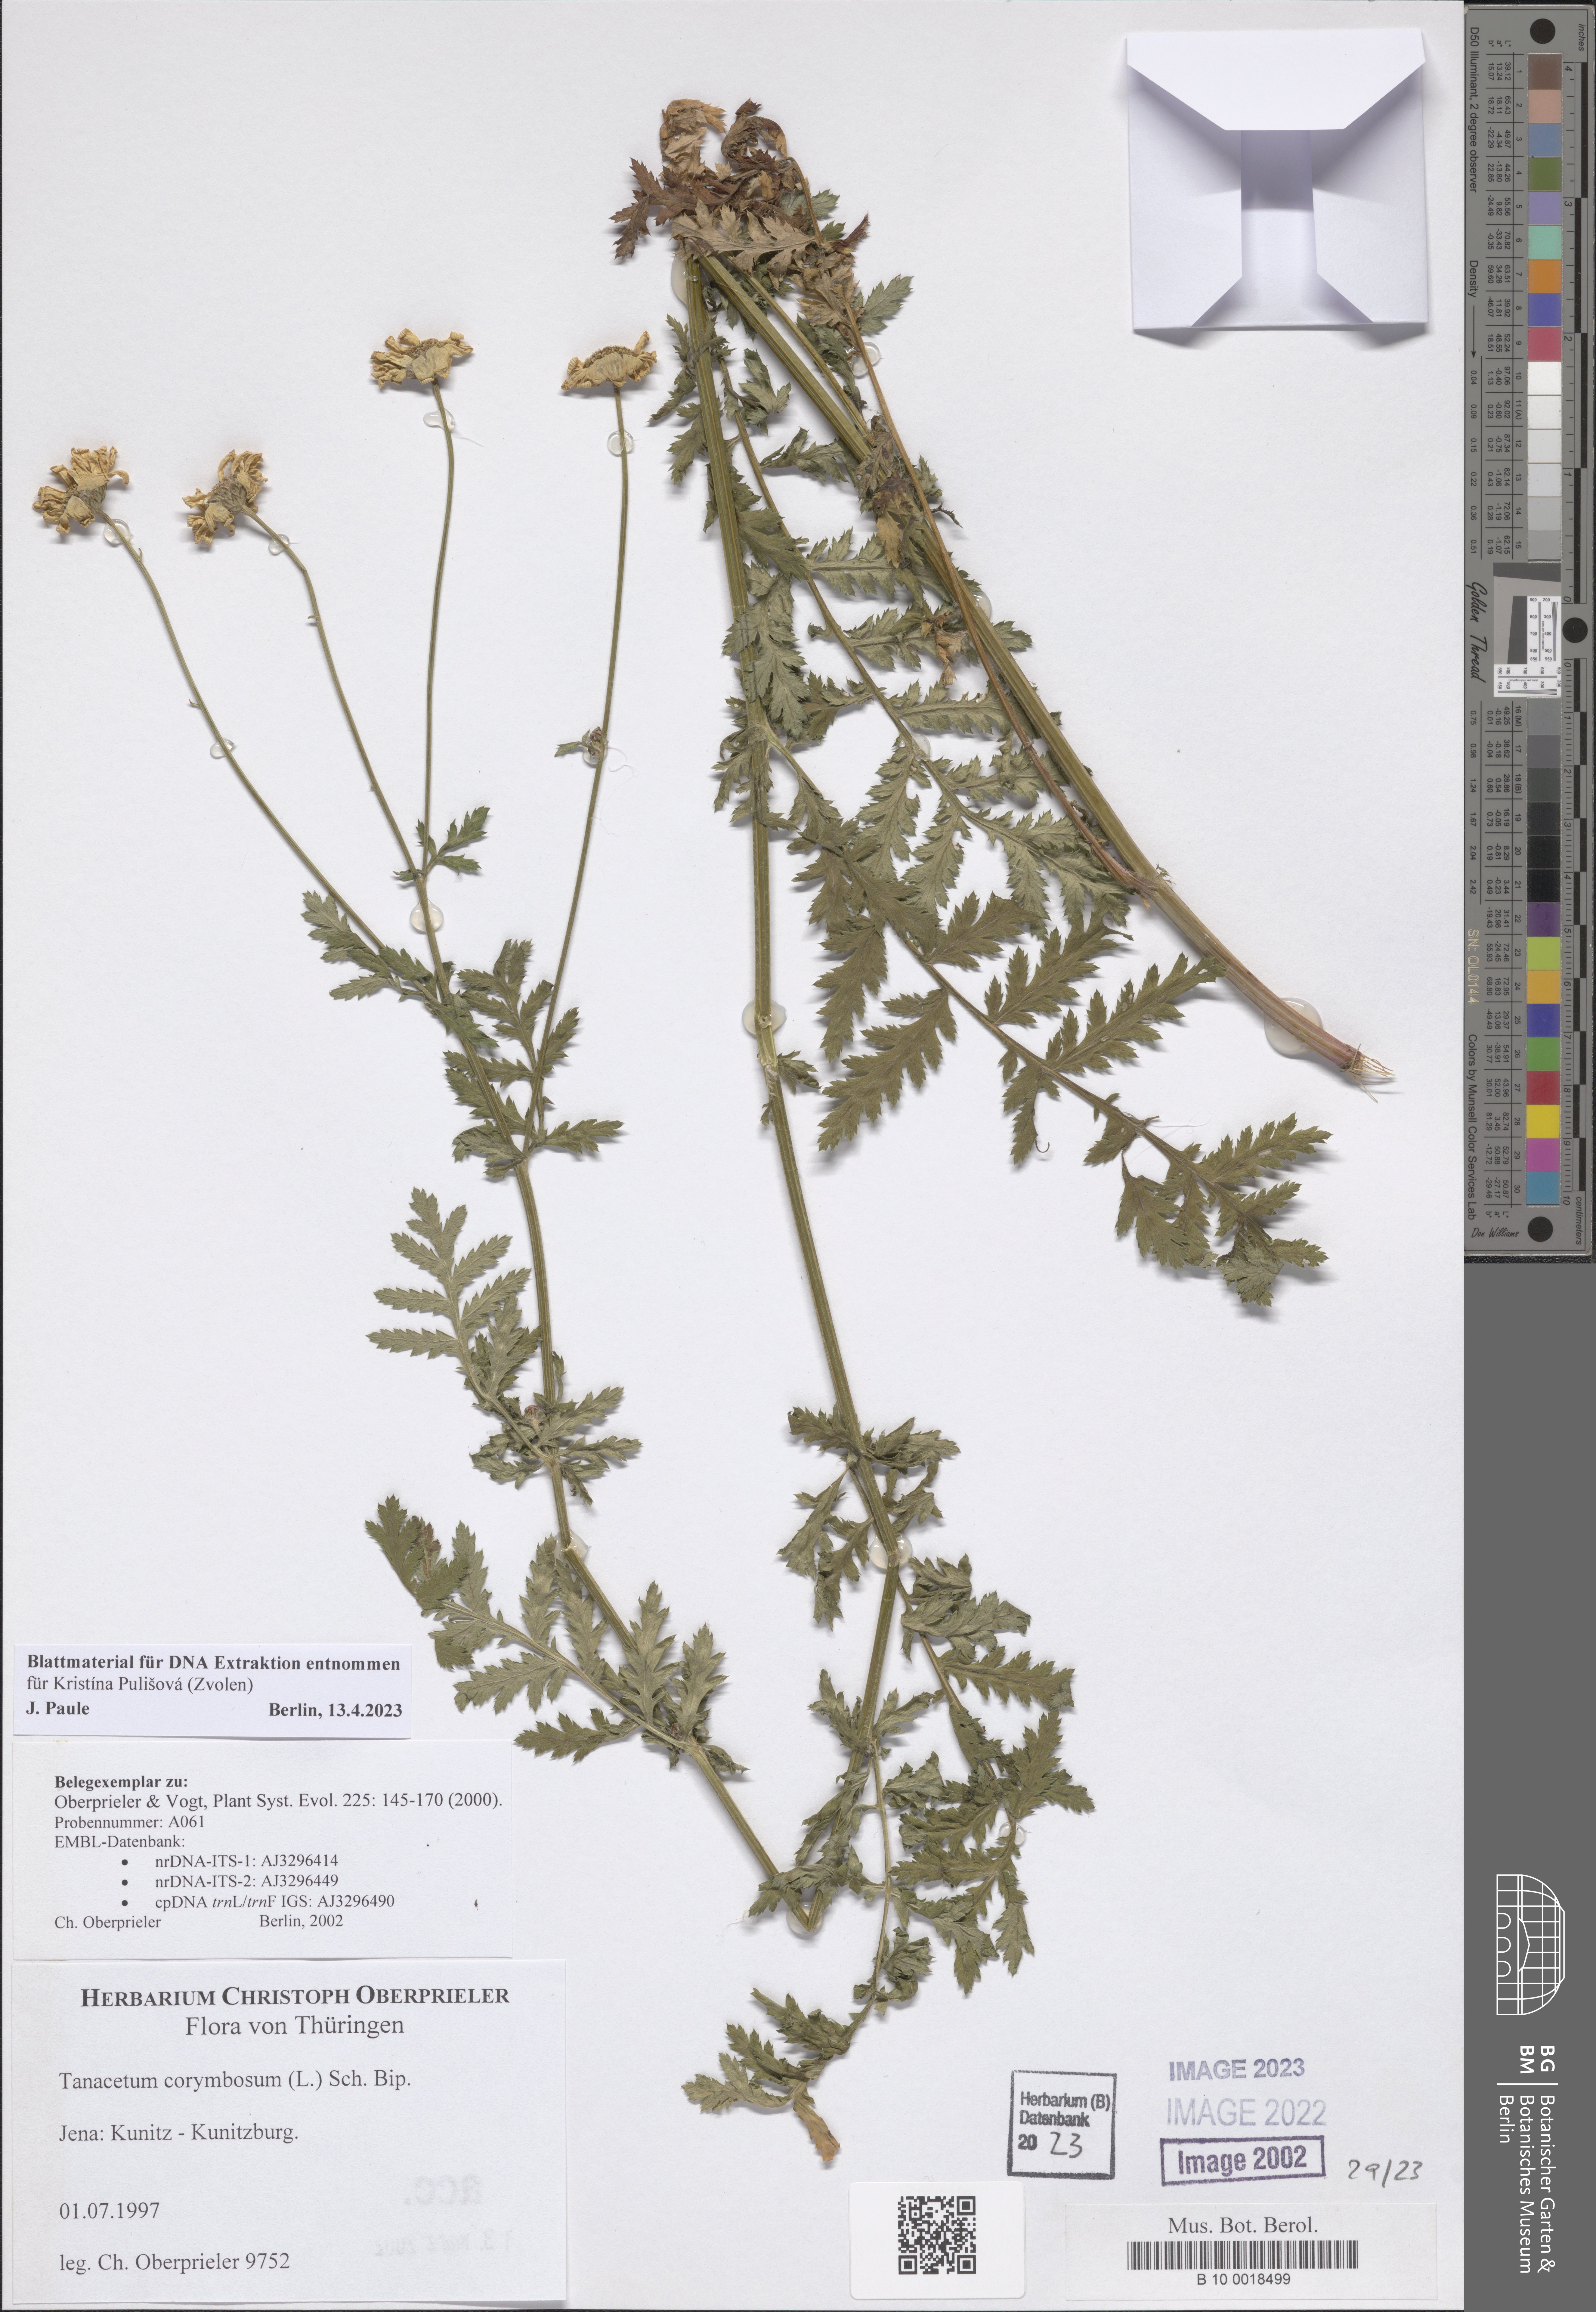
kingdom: Plantae
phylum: Tracheophyta
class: Magnoliopsida
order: Asterales
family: Asteraceae
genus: Tanacetum
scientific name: Tanacetum corymbosum
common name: Scentless feverfew
